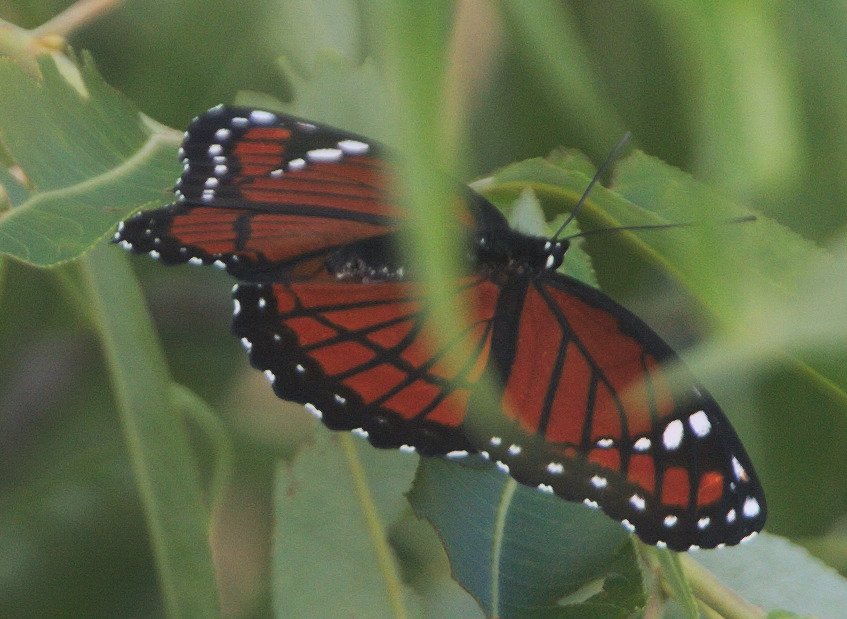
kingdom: Animalia
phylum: Arthropoda
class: Insecta
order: Lepidoptera
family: Nymphalidae
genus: Limenitis
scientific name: Limenitis archippus
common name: Viceroy
